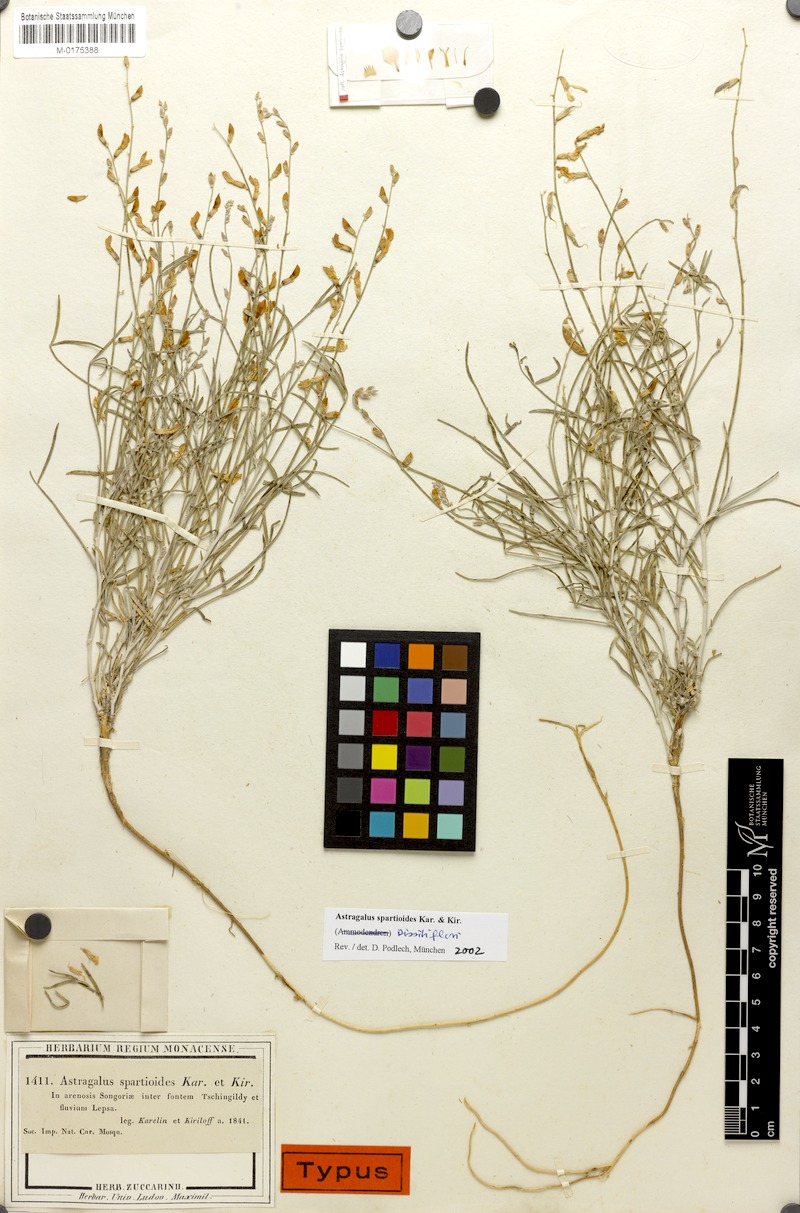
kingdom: Plantae
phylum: Tracheophyta
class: Magnoliopsida
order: Fabales
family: Fabaceae
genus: Astragalus
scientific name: Astragalus spartioides
